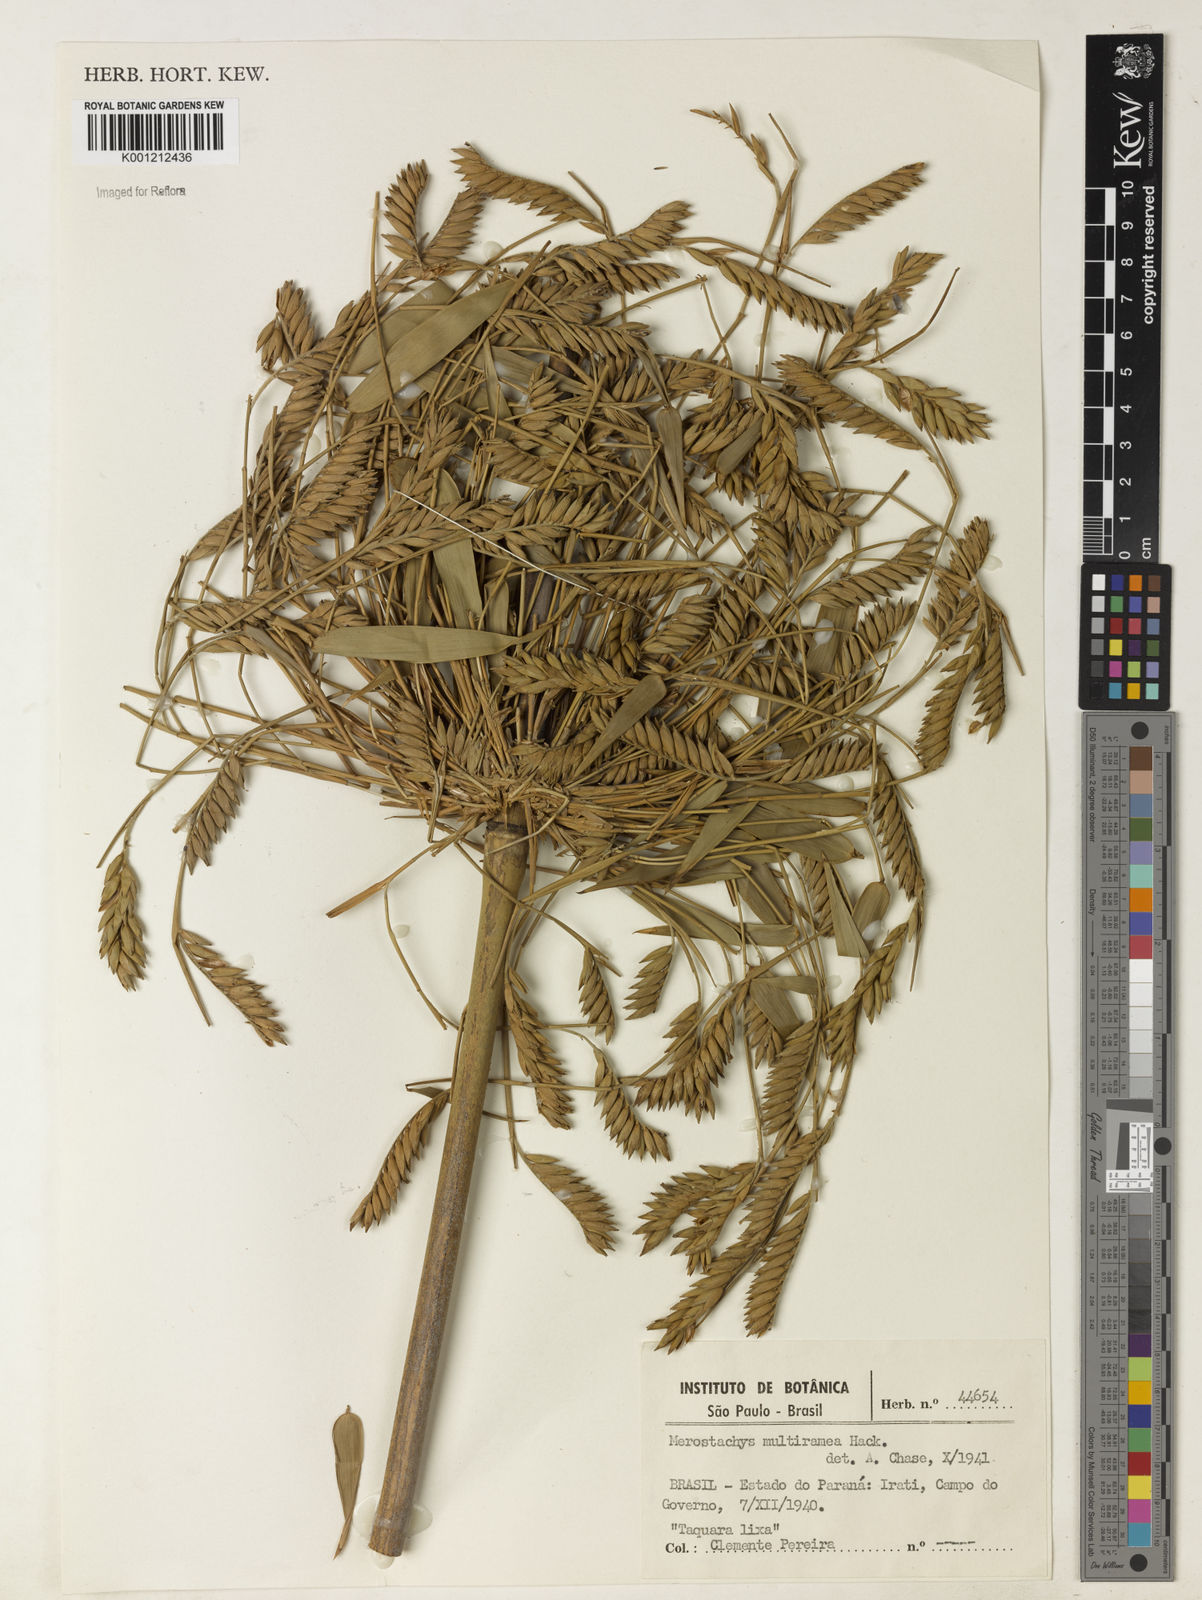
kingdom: Plantae
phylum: Tracheophyta
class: Liliopsida
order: Poales
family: Poaceae
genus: Merostachys
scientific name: Merostachys multiramea
